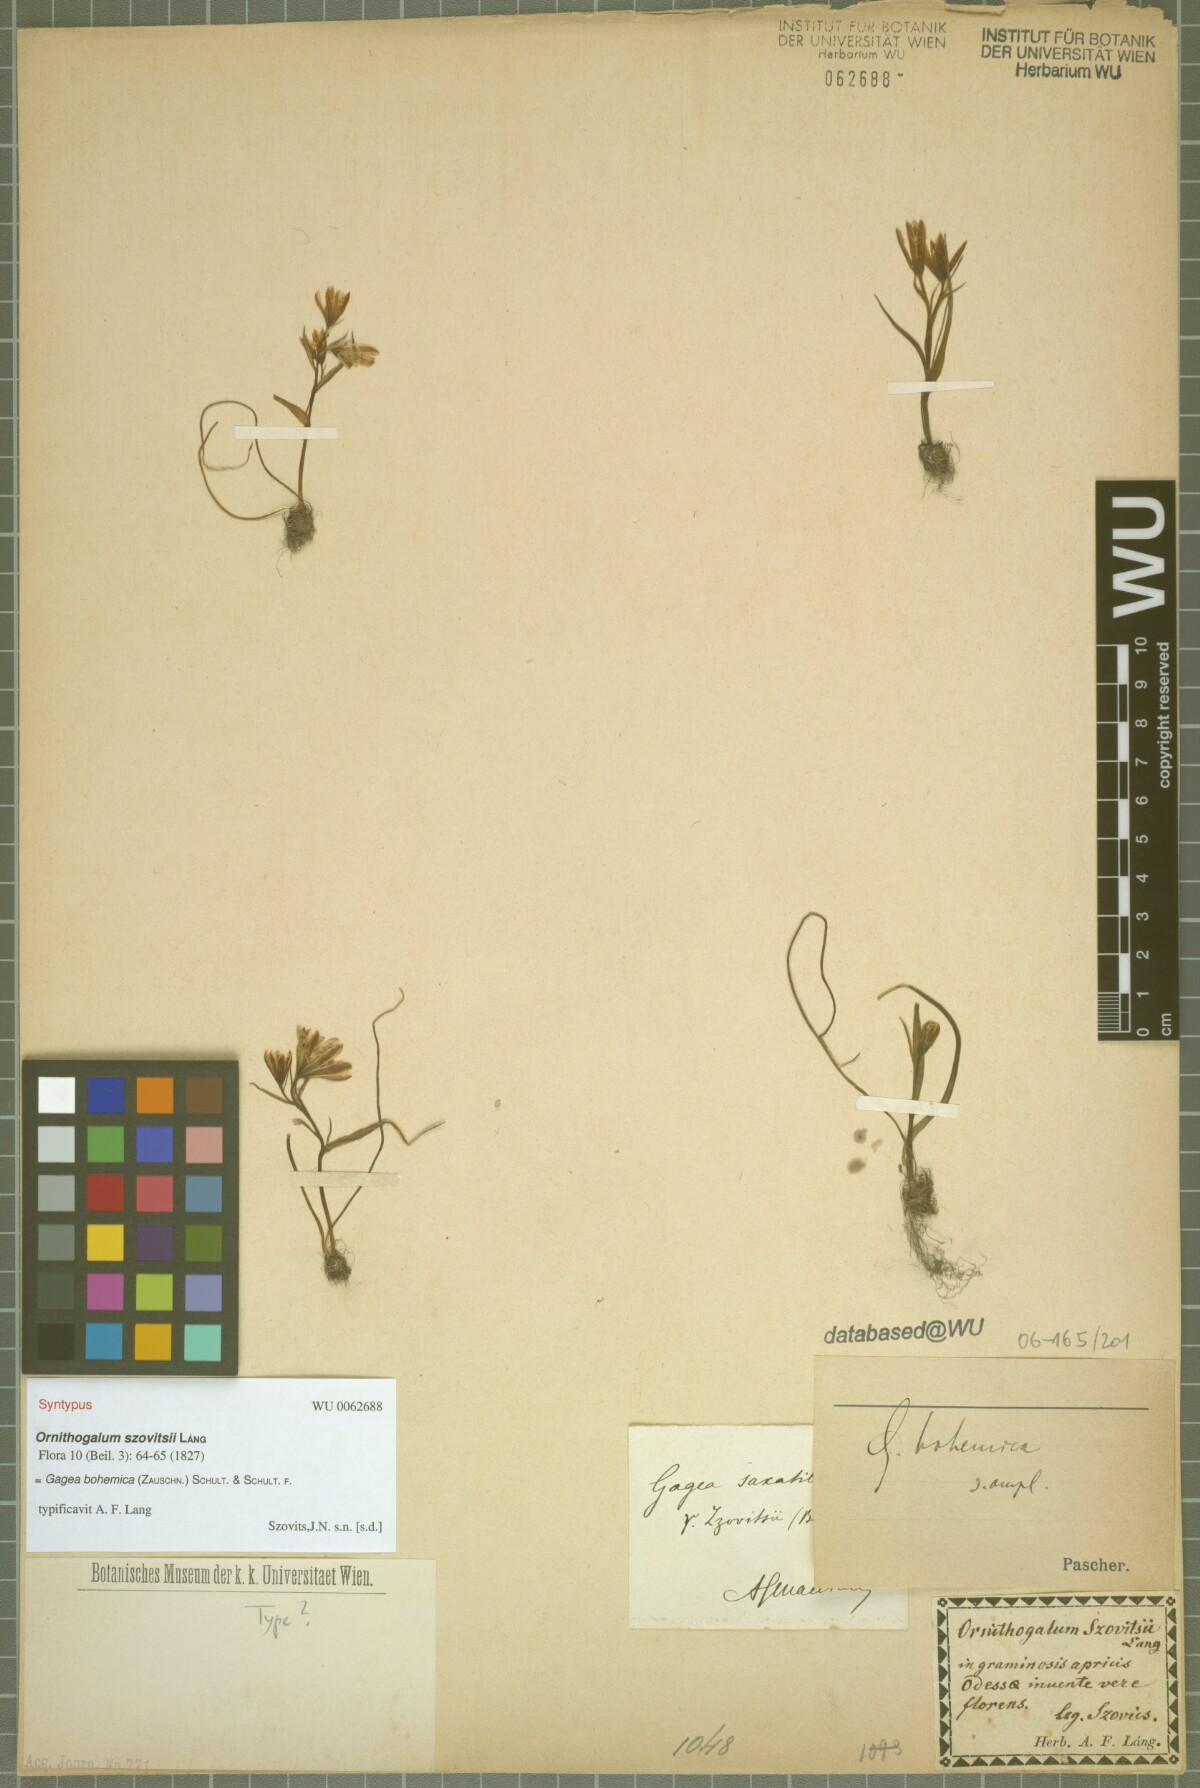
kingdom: Plantae
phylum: Tracheophyta
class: Liliopsida
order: Liliales
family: Liliaceae
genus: Gagea
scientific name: Gagea bohemica
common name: Early star-of-bethlehem
